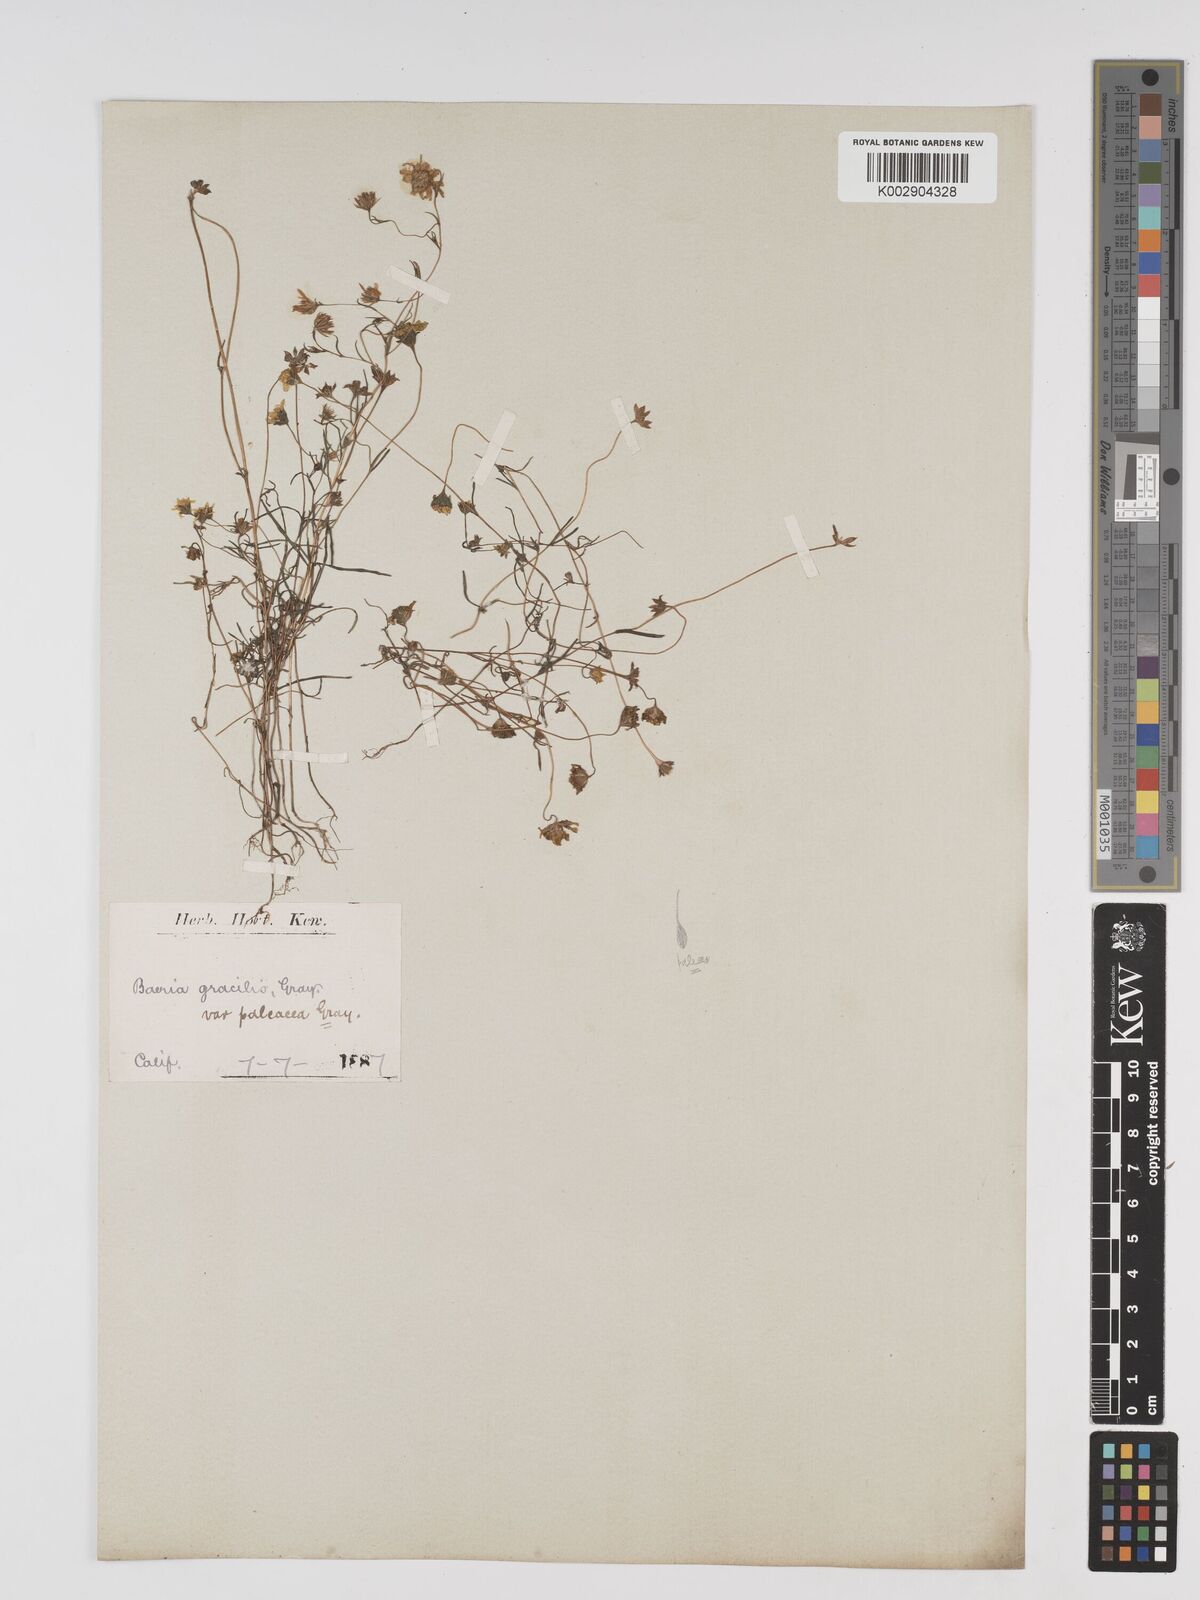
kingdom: Plantae
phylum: Tracheophyta
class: Magnoliopsida
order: Asterales
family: Asteraceae
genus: Lasthenia
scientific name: Lasthenia gracilis
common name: Common goldfields
